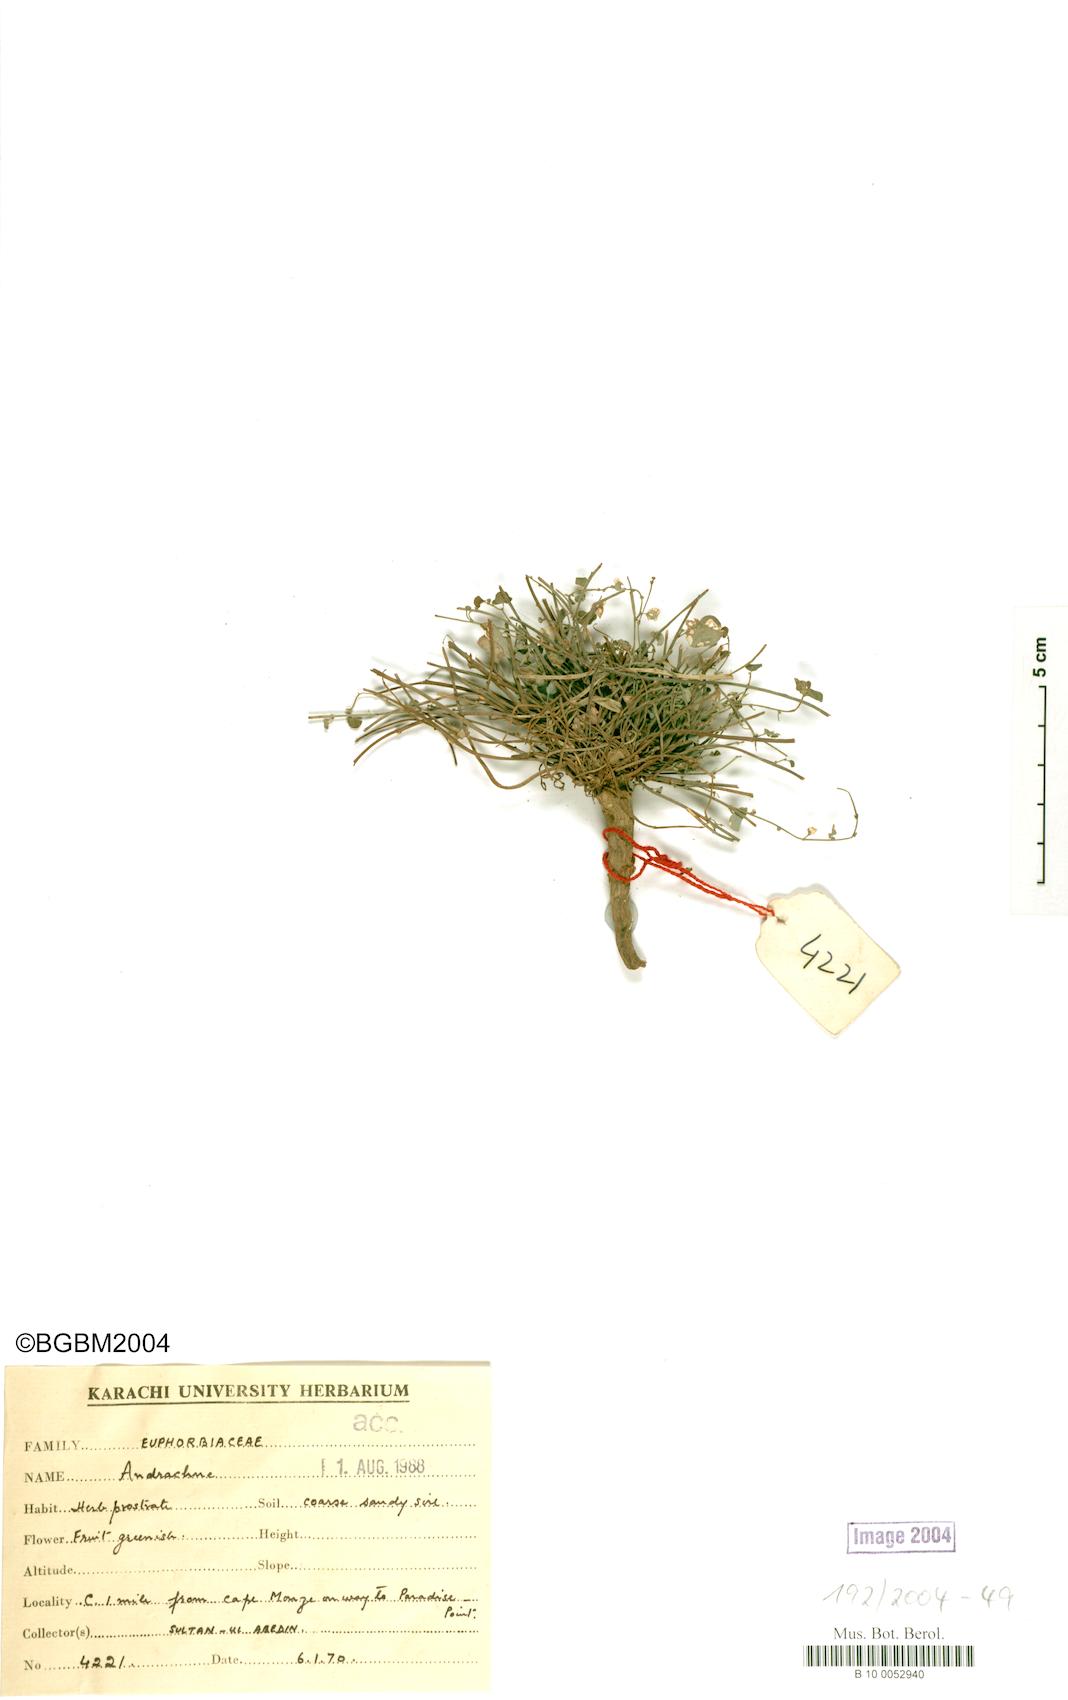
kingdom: Plantae
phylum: Tracheophyta
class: Magnoliopsida
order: Malpighiales
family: Phyllanthaceae
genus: Andrachne
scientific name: Andrachne
